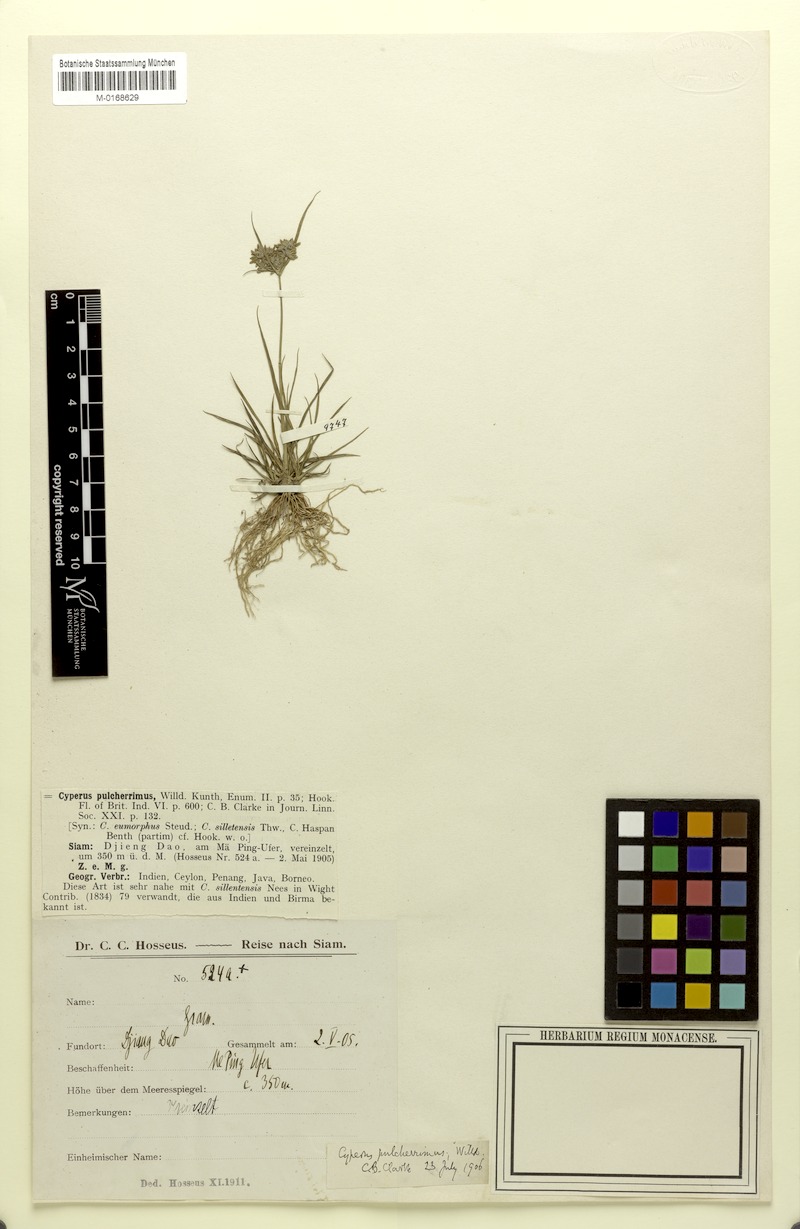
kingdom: Plantae
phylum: Tracheophyta
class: Liliopsida
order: Poales
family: Cyperaceae
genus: Cyperus
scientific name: Cyperus pulcherrimus
